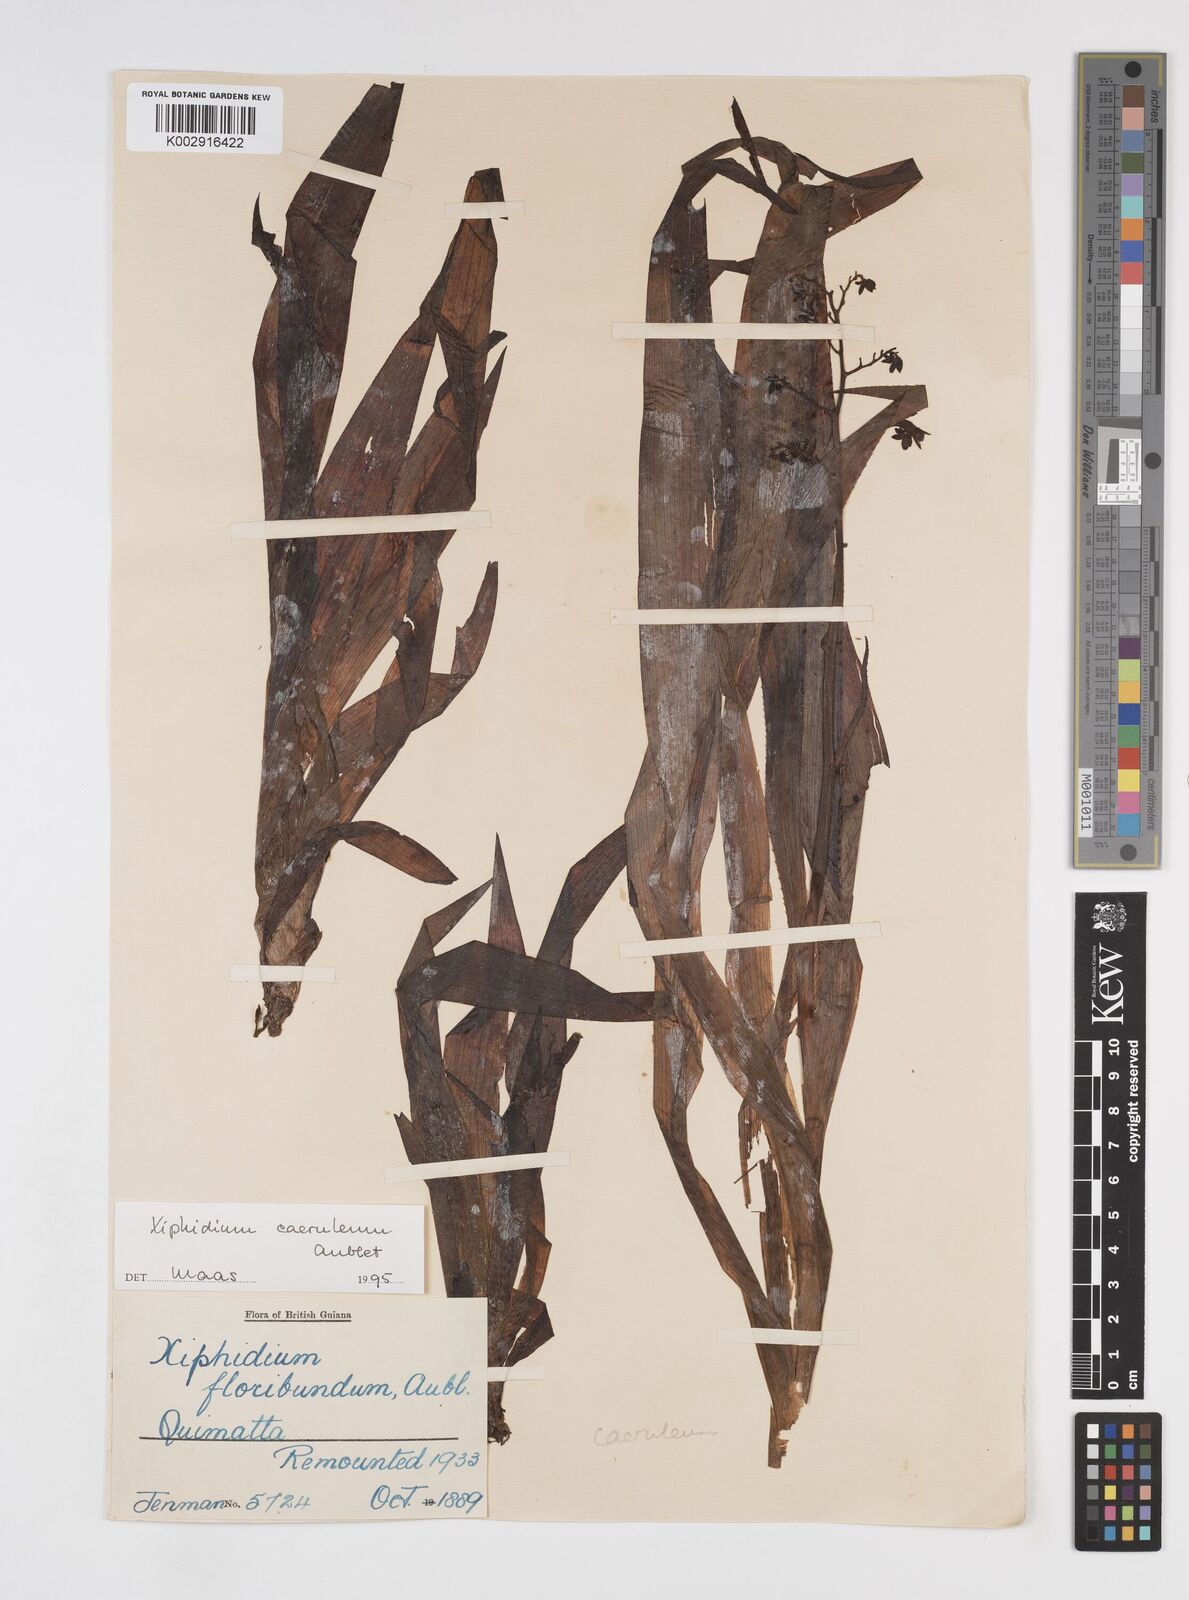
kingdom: Plantae
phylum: Tracheophyta
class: Liliopsida
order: Commelinales
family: Haemodoraceae
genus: Xiphidium
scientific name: Xiphidium caeruleum
